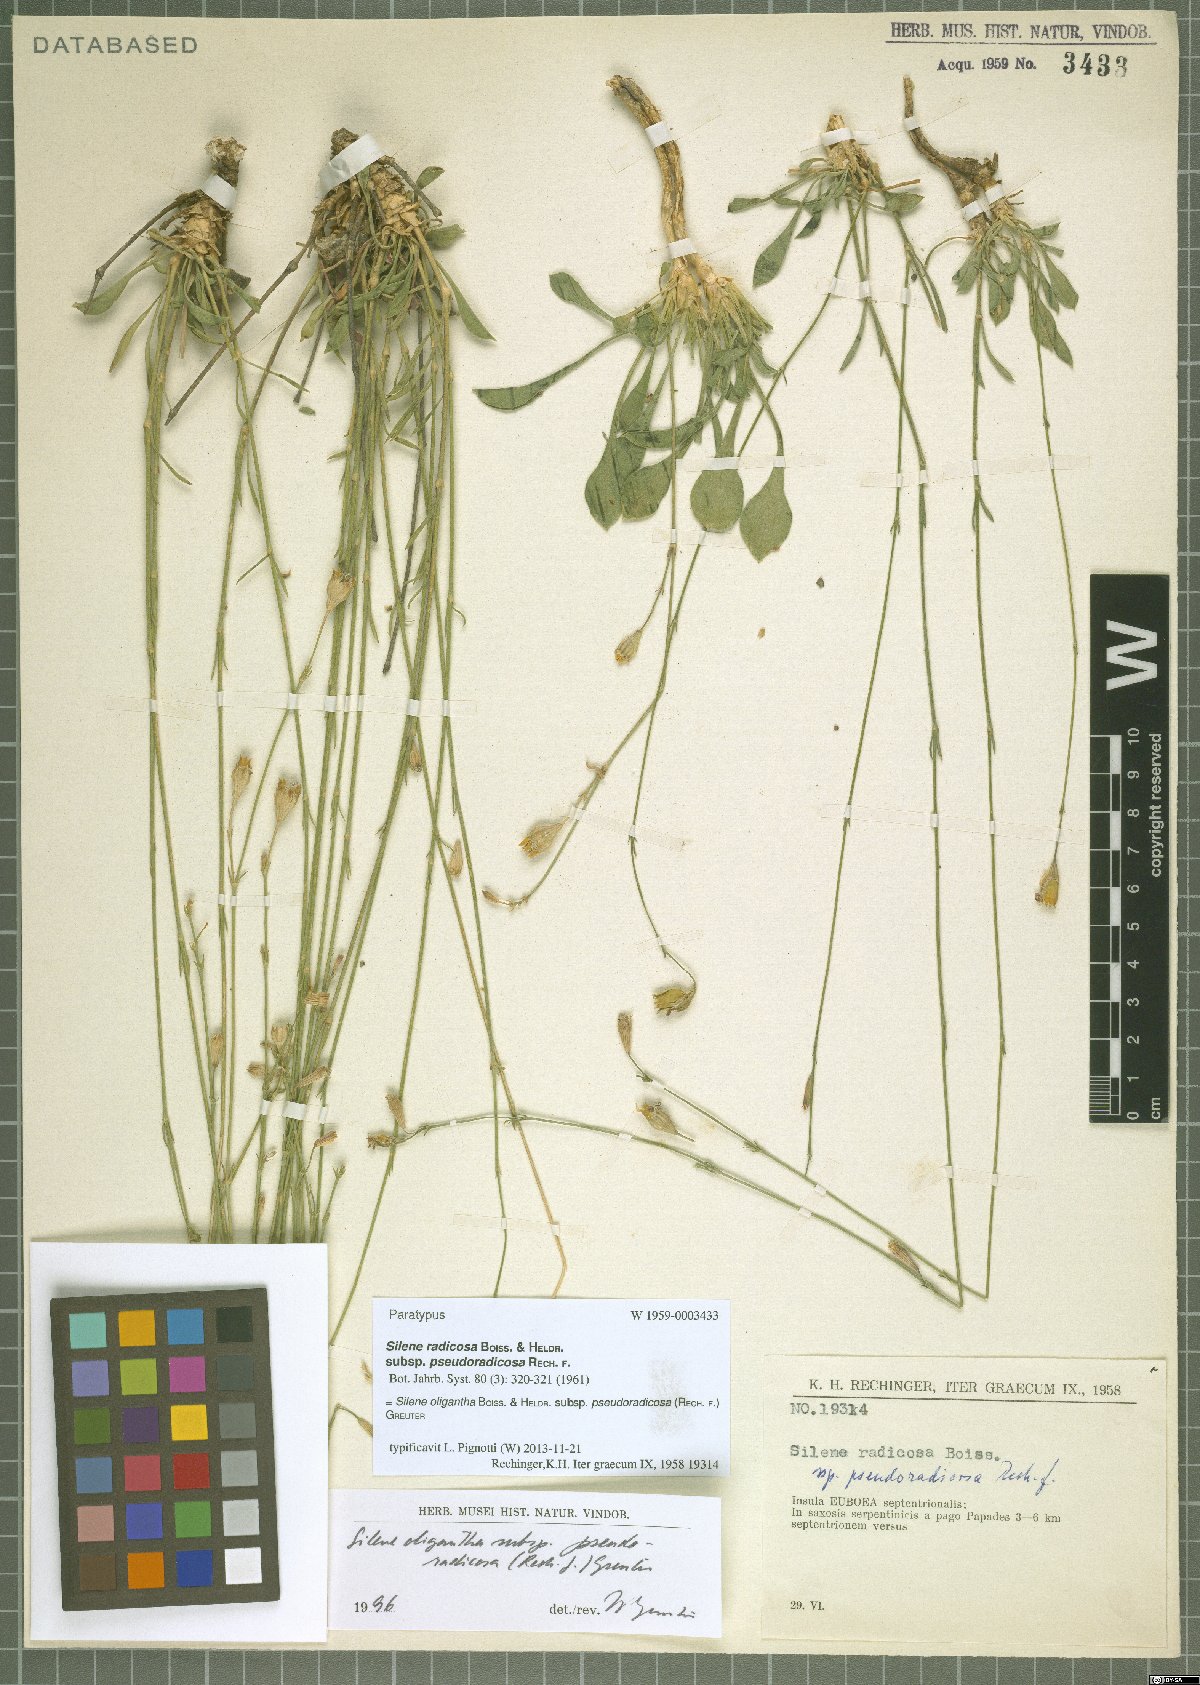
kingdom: Plantae
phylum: Tracheophyta
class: Magnoliopsida
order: Caryophyllales
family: Caryophyllaceae
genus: Silene
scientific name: Silene oligantha
